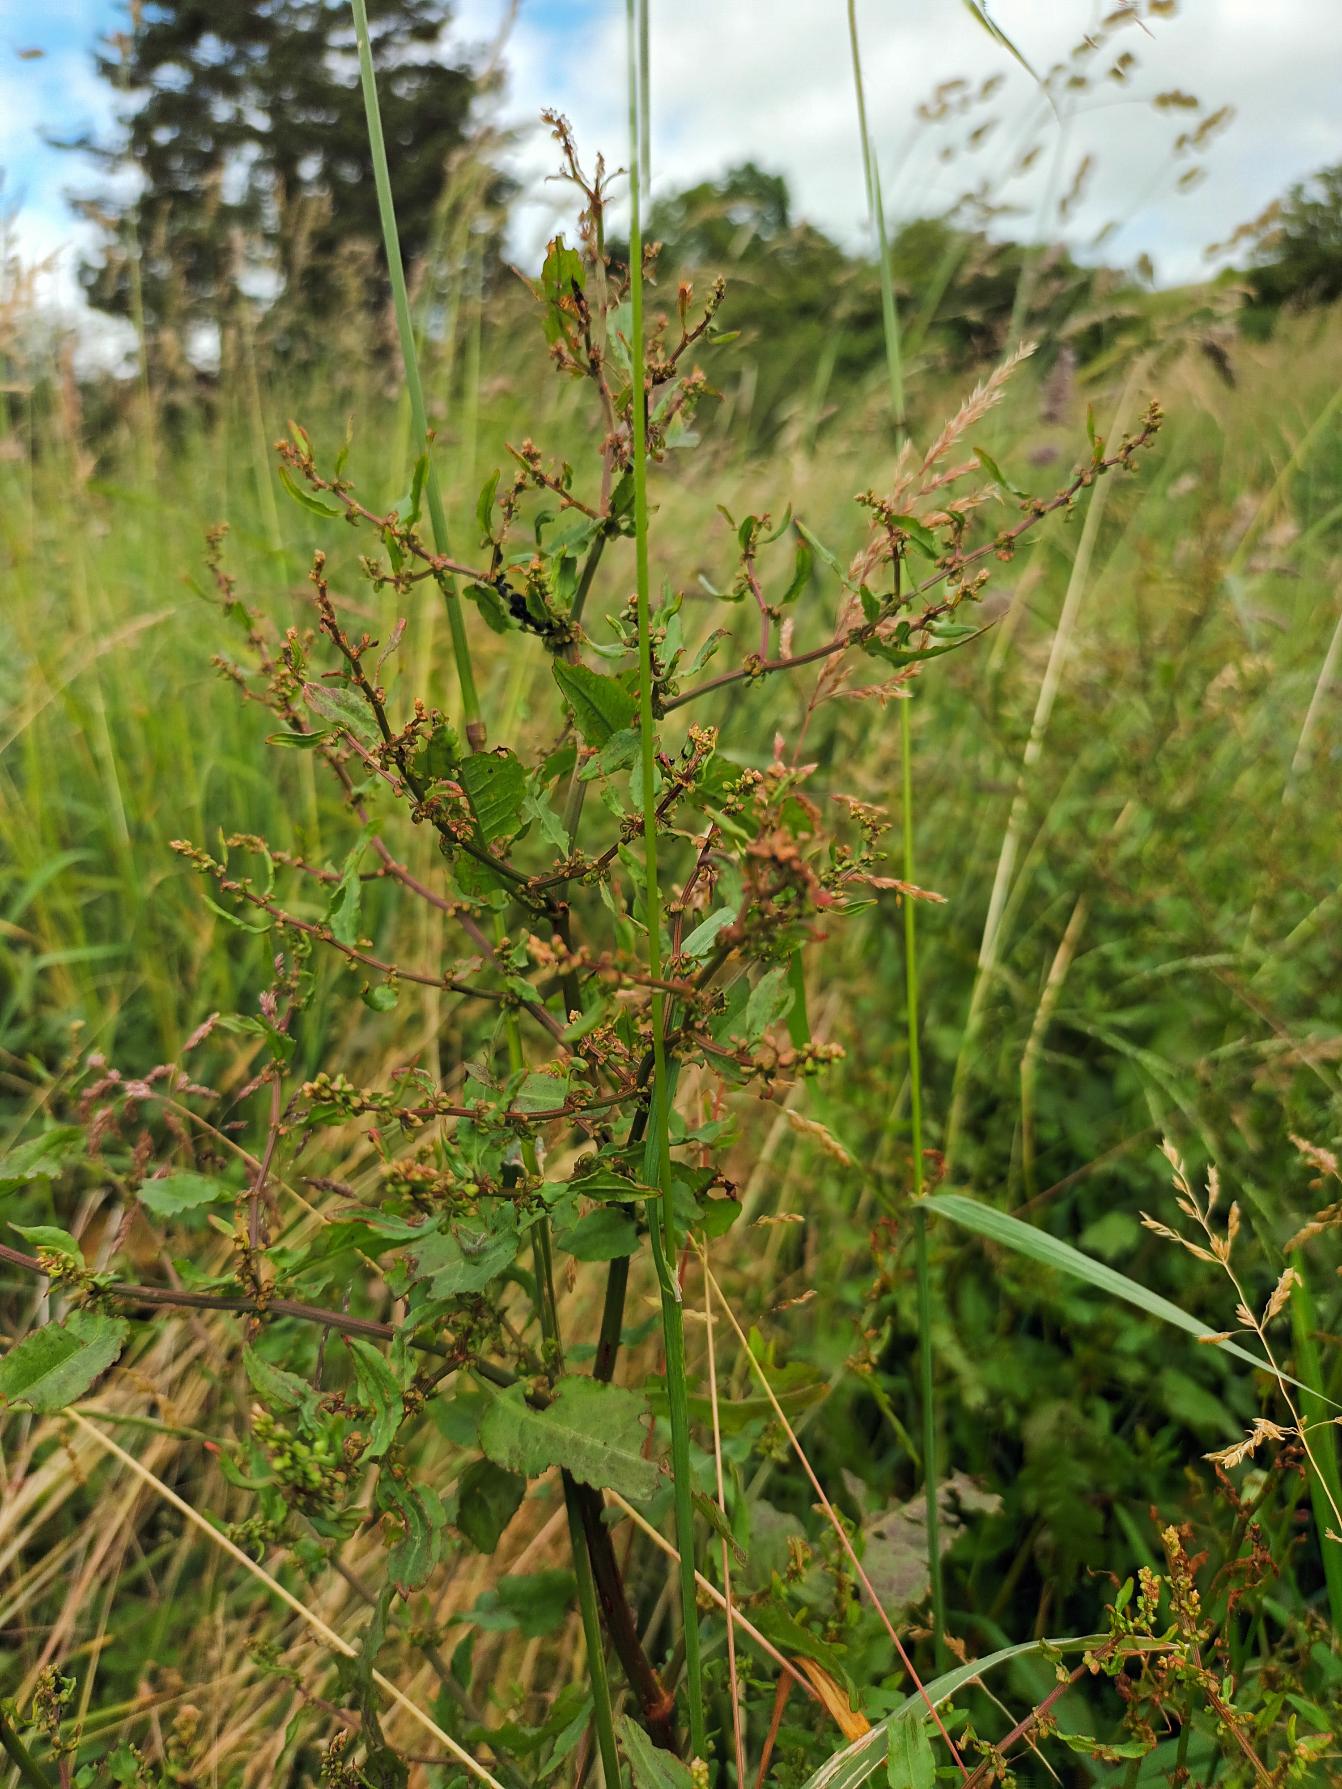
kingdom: Plantae
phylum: Tracheophyta
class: Magnoliopsida
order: Caryophyllales
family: Polygonaceae
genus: Rumex
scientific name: Rumex conglomeratus
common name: Nøgle-skræppe
